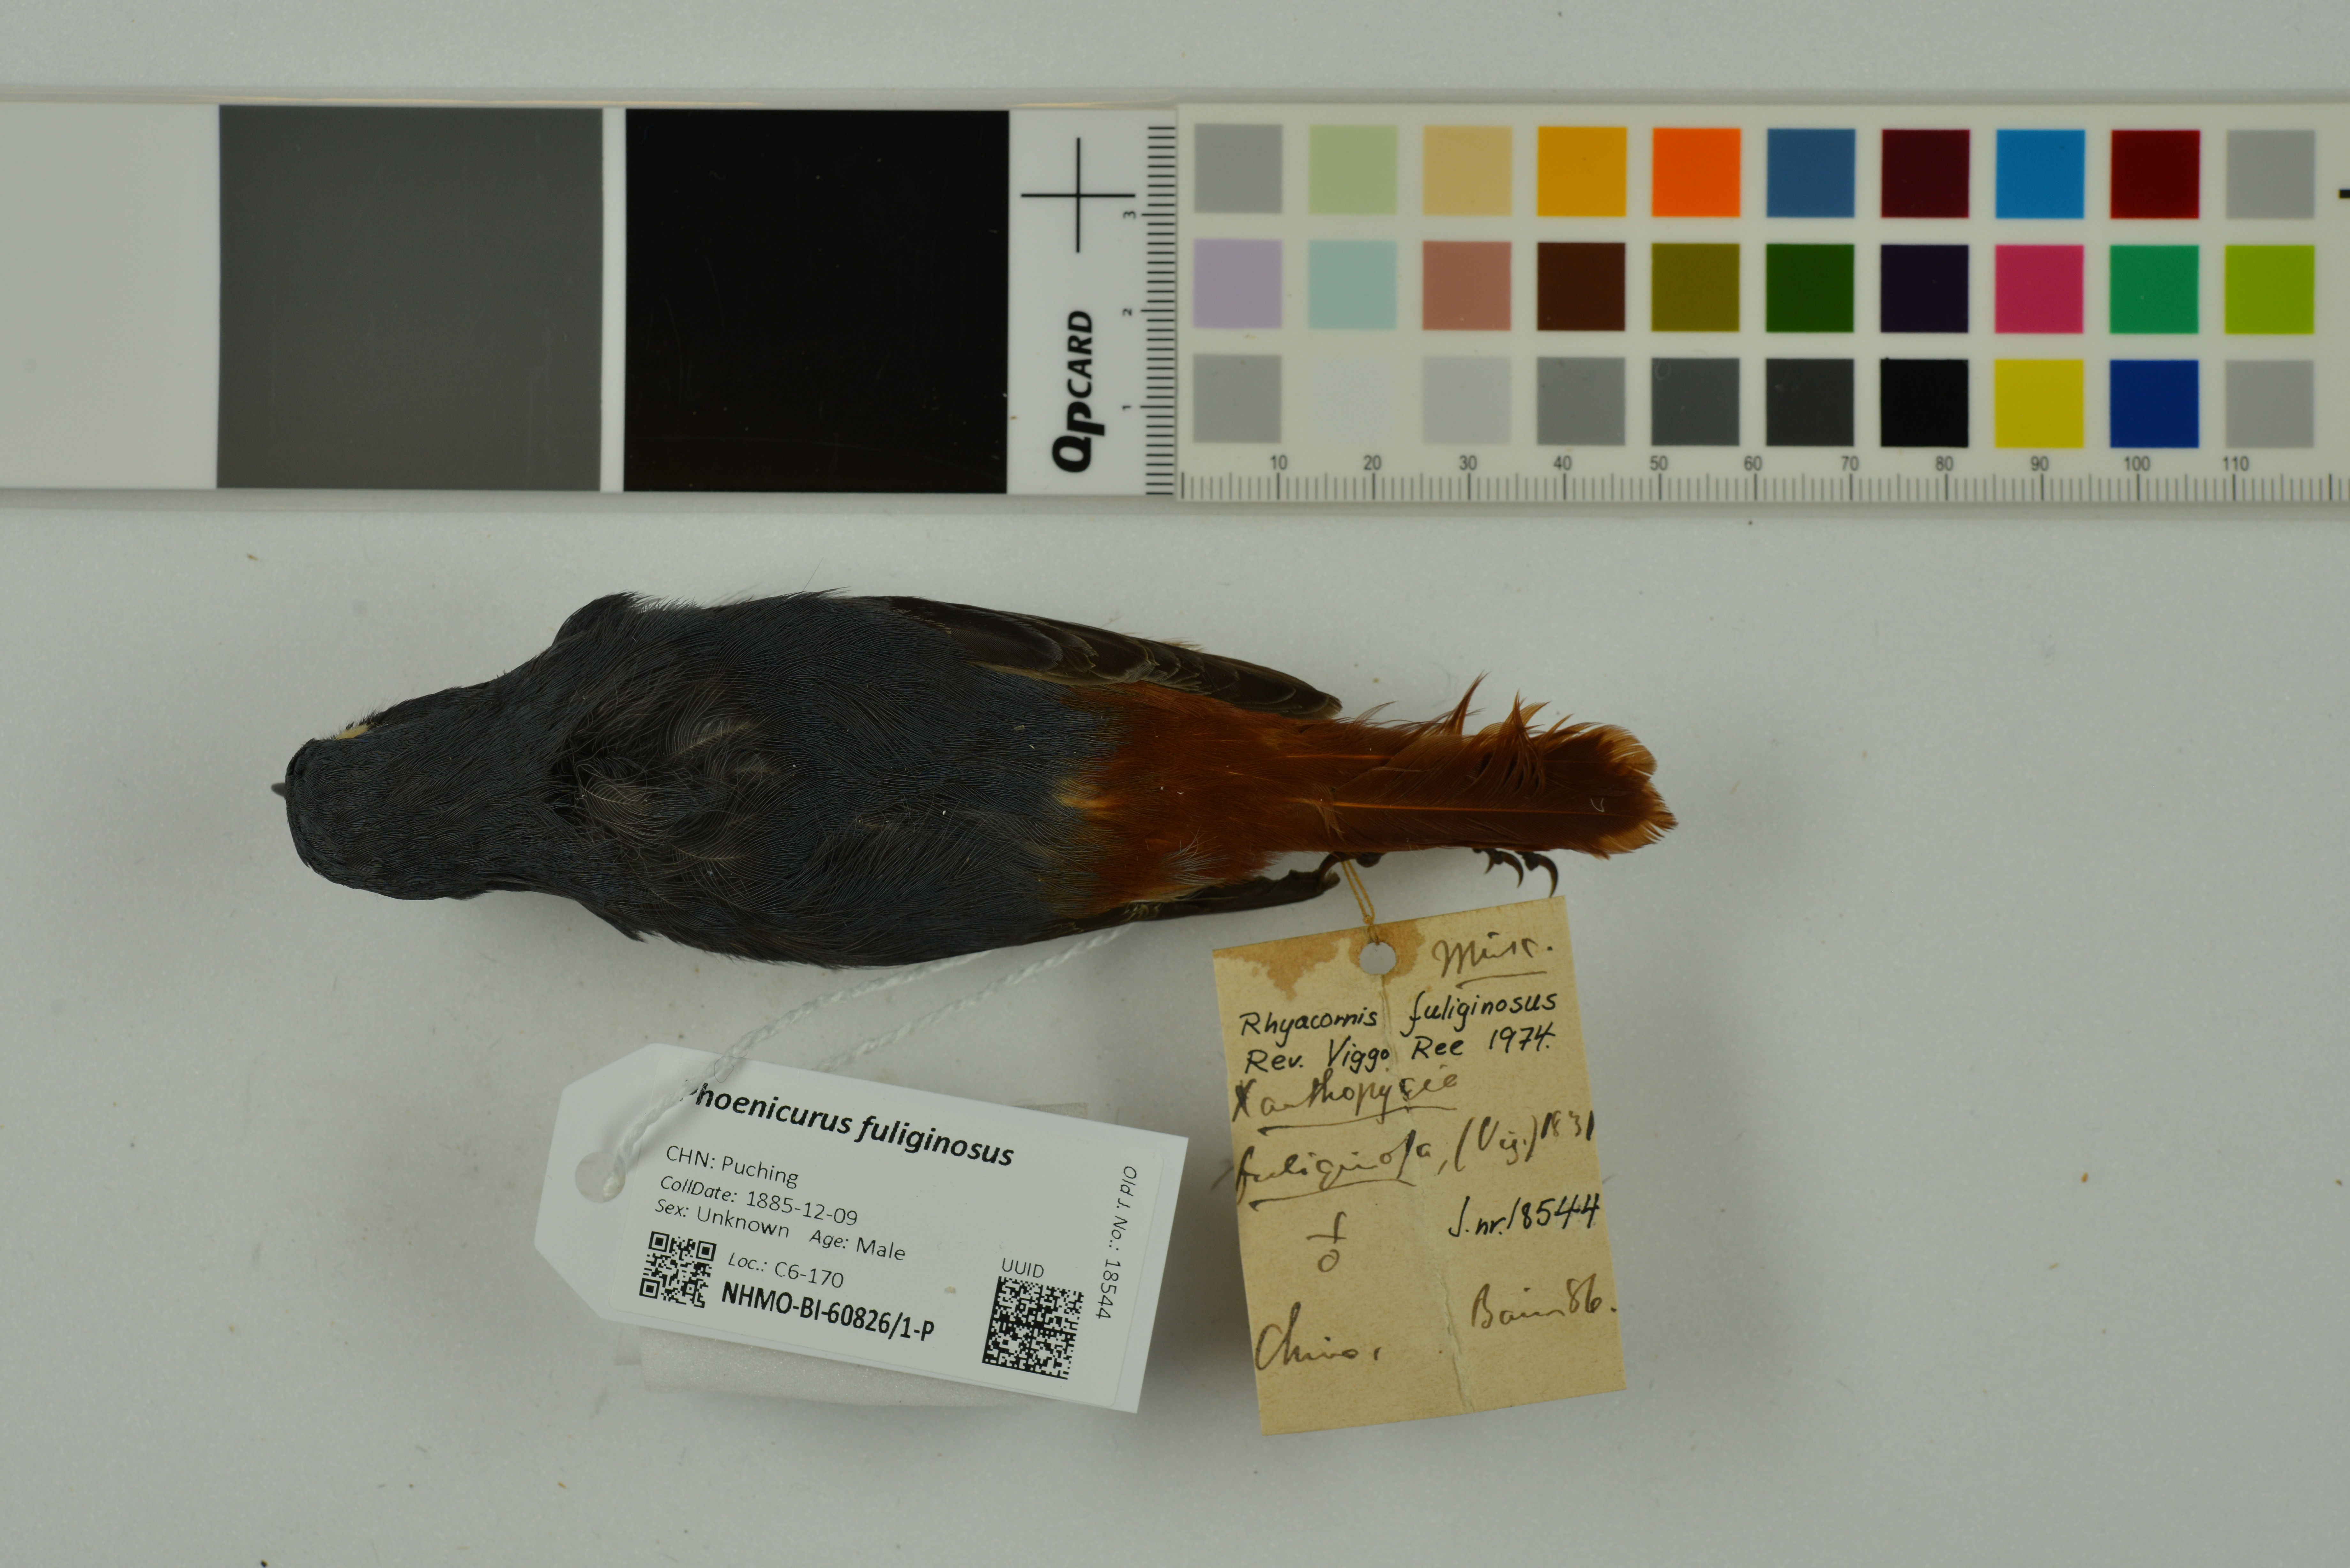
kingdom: Animalia
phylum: Chordata
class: Aves
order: Passeriformes
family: Muscicapidae
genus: Phoenicurus
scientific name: Phoenicurus fuliginosus
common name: Plumbeous water redstart
